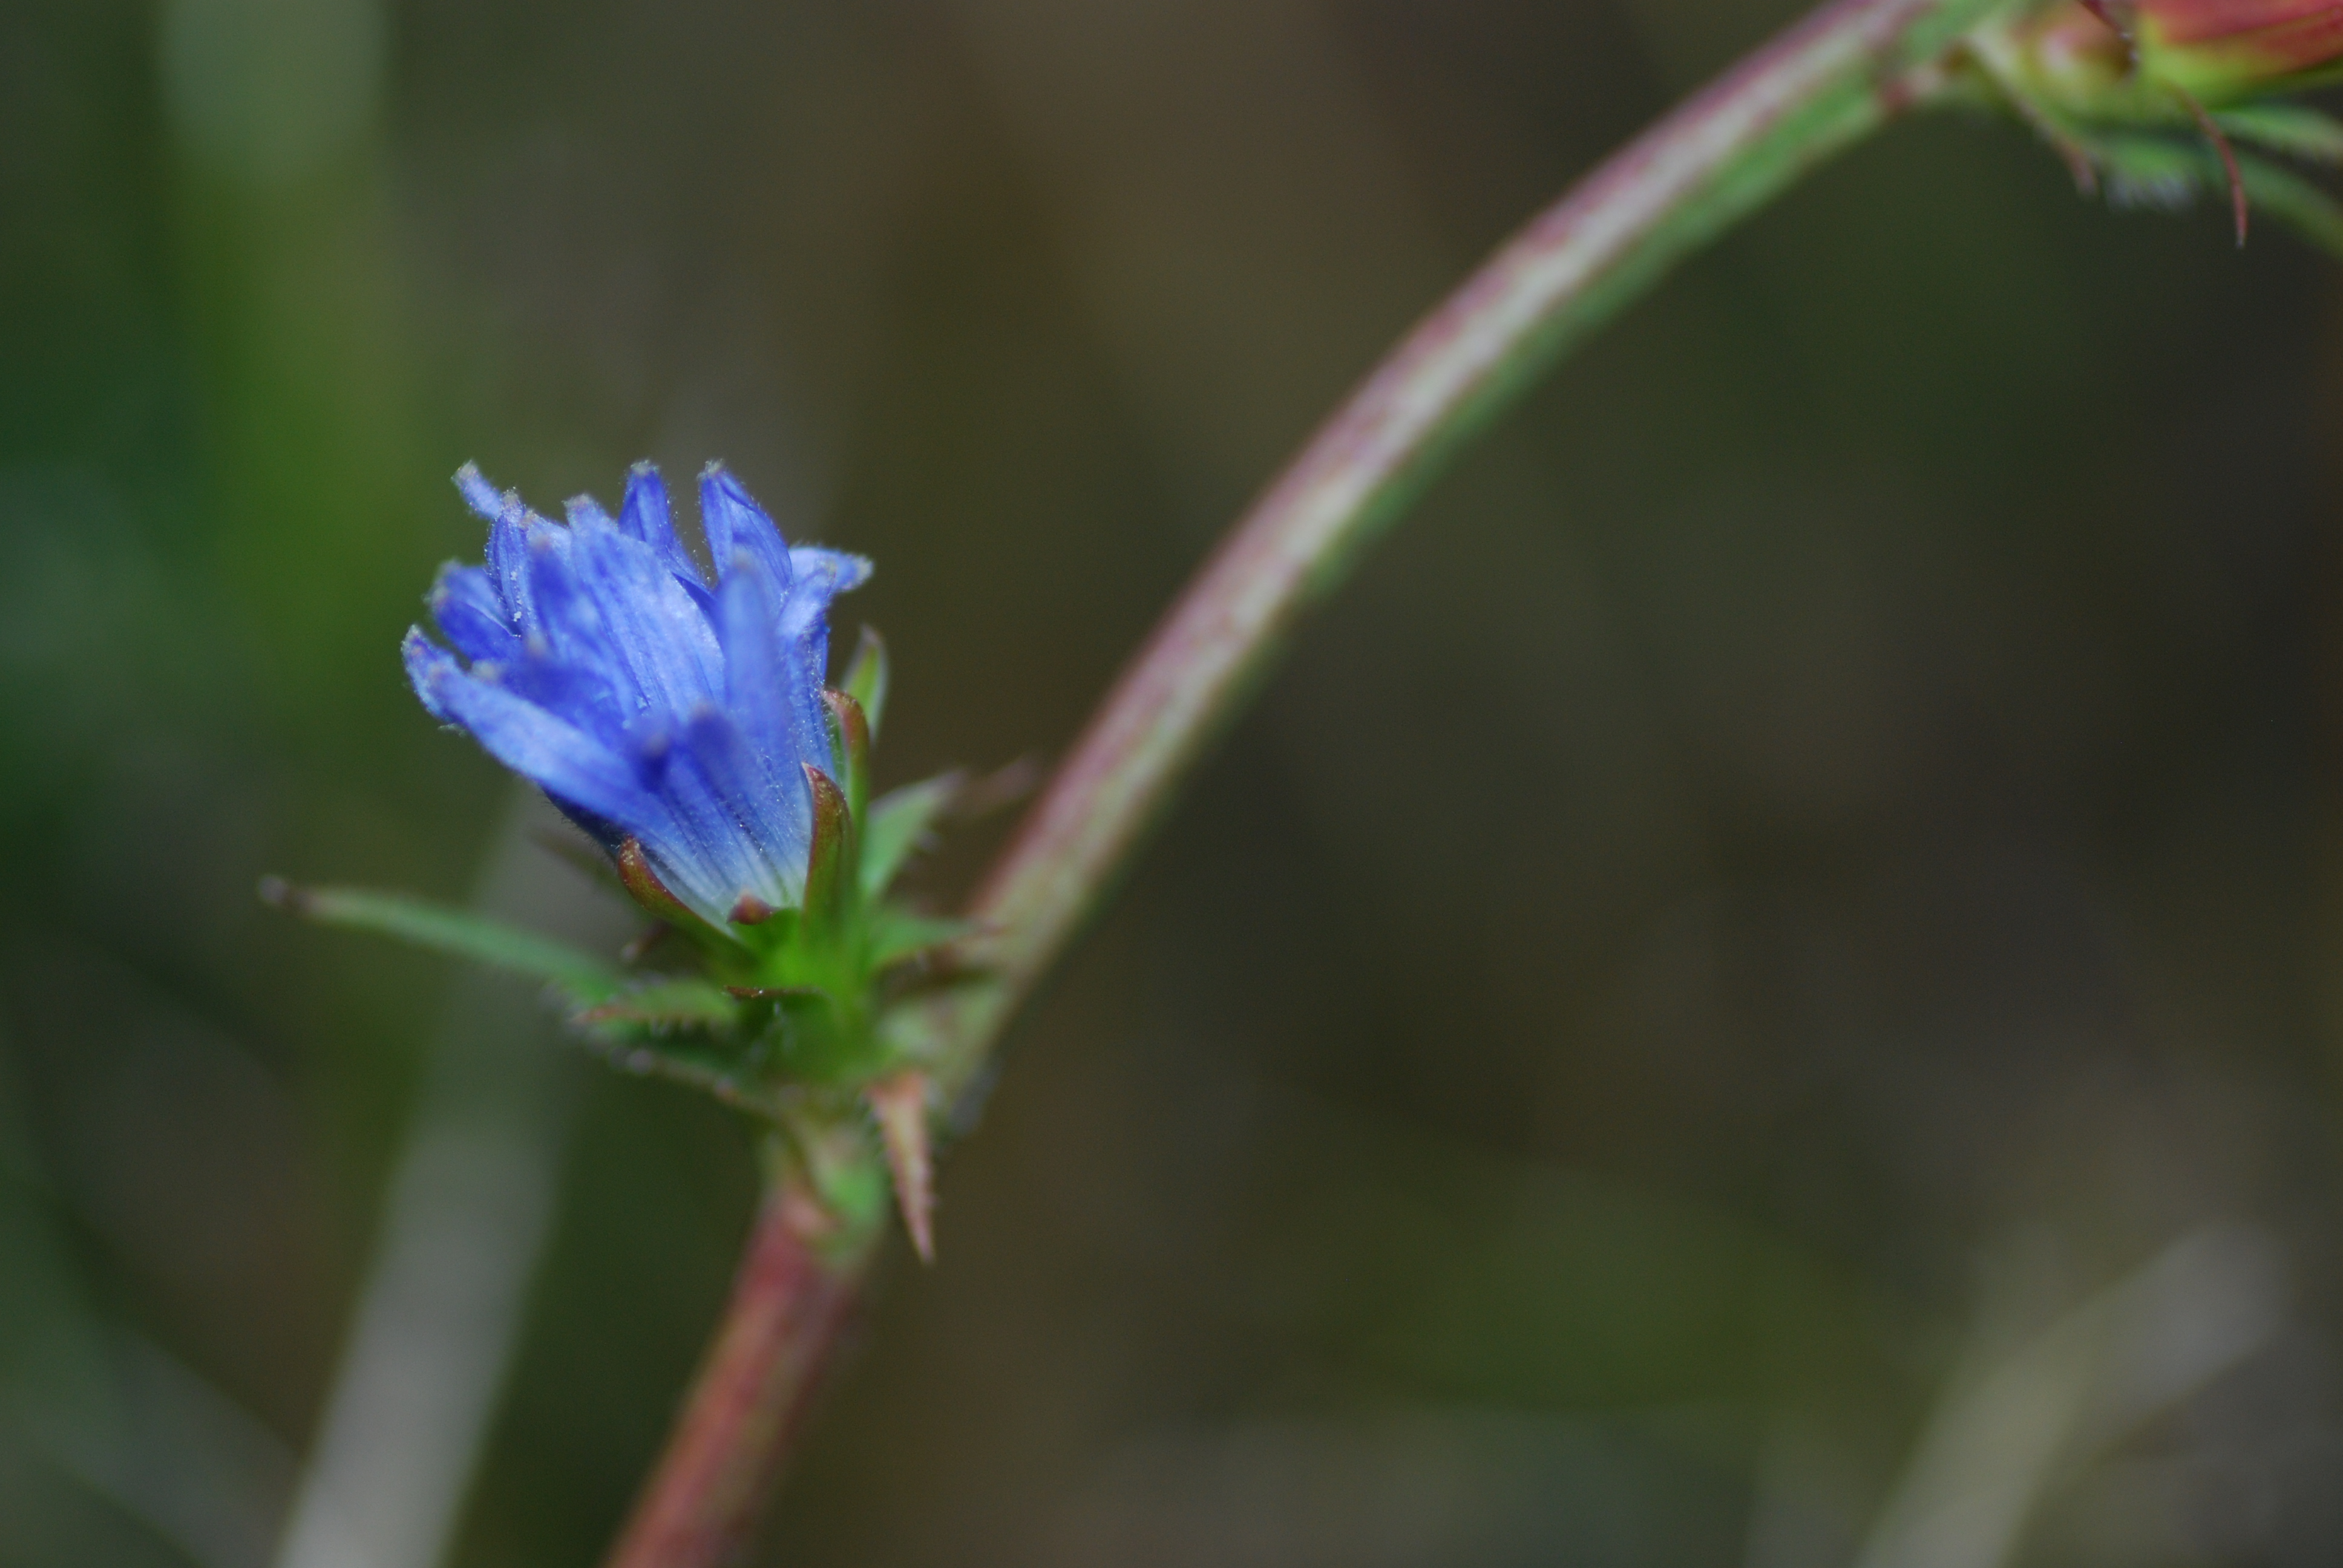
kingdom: Plantae
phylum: Tracheophyta
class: Magnoliopsida
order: Asterales
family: Asteraceae
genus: Cichorium
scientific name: Cichorium intybus
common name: Chicory
